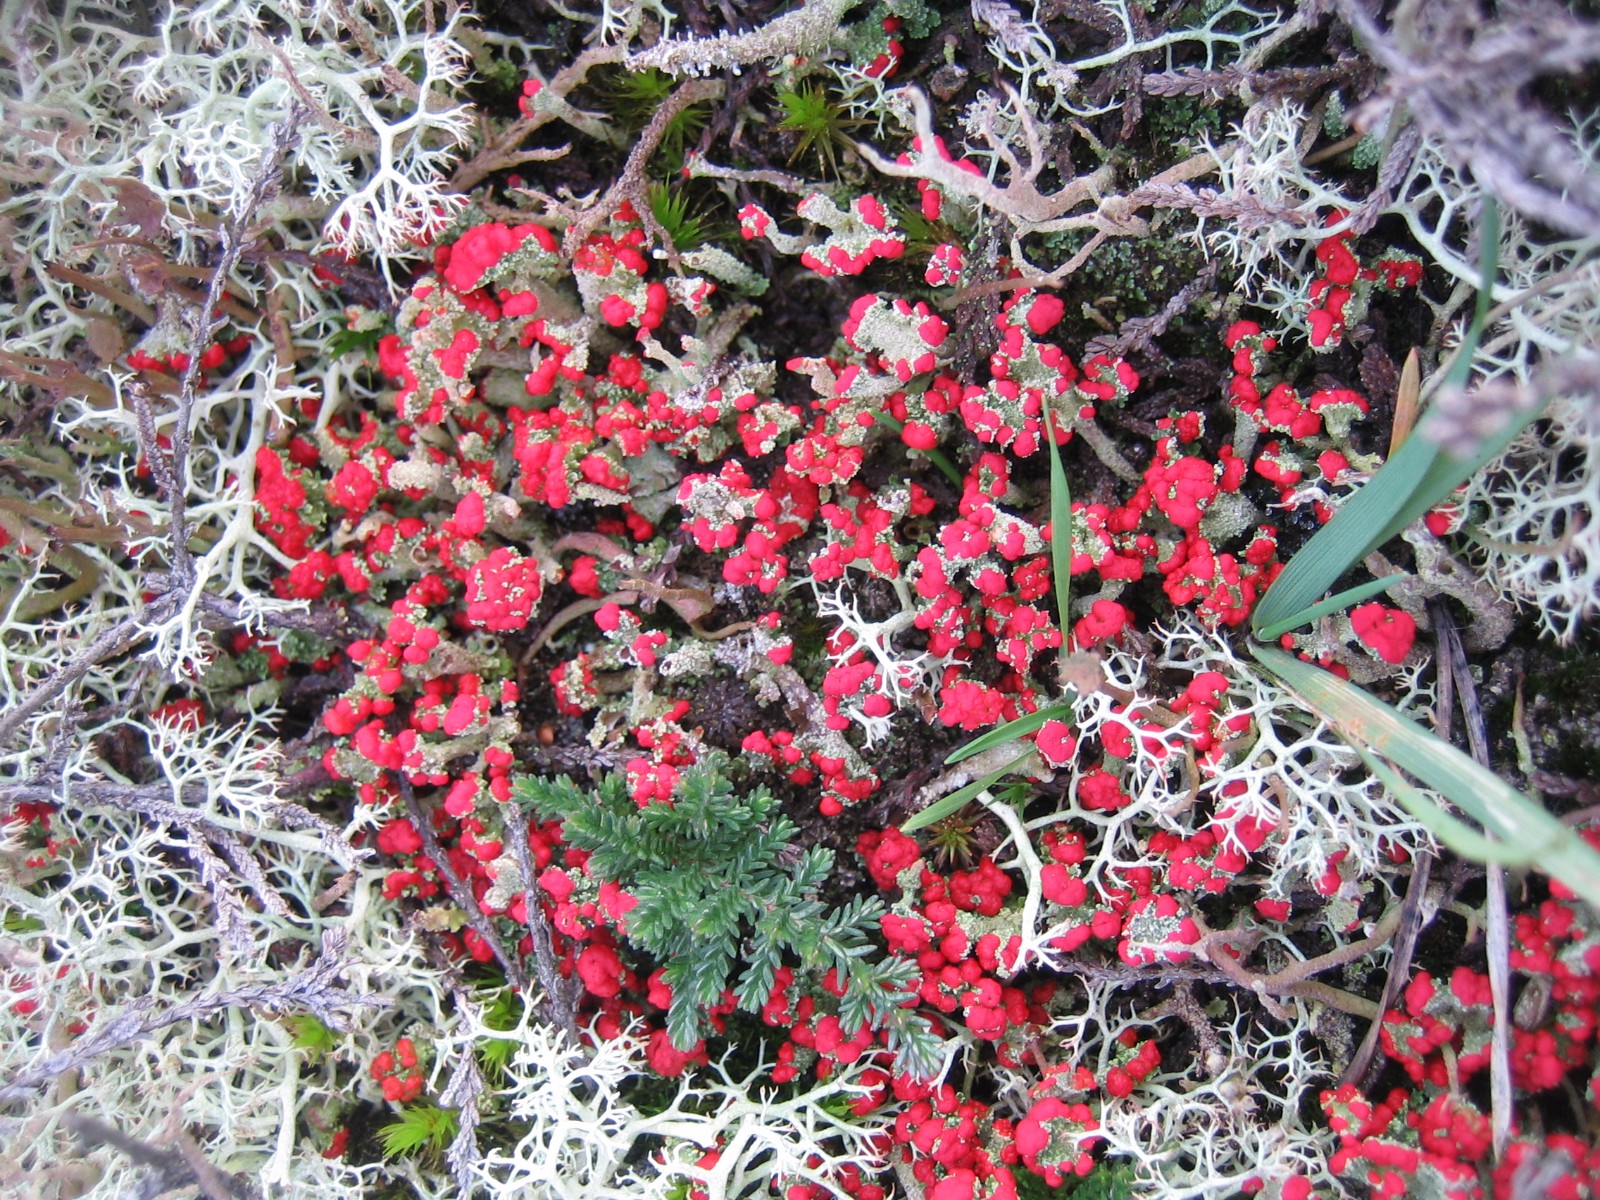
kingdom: Fungi
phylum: Ascomycota
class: Lecanoromycetes
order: Lecanorales
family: Cladoniaceae
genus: Cladonia
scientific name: Cladonia floerkeana
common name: lakrød bægerlav
